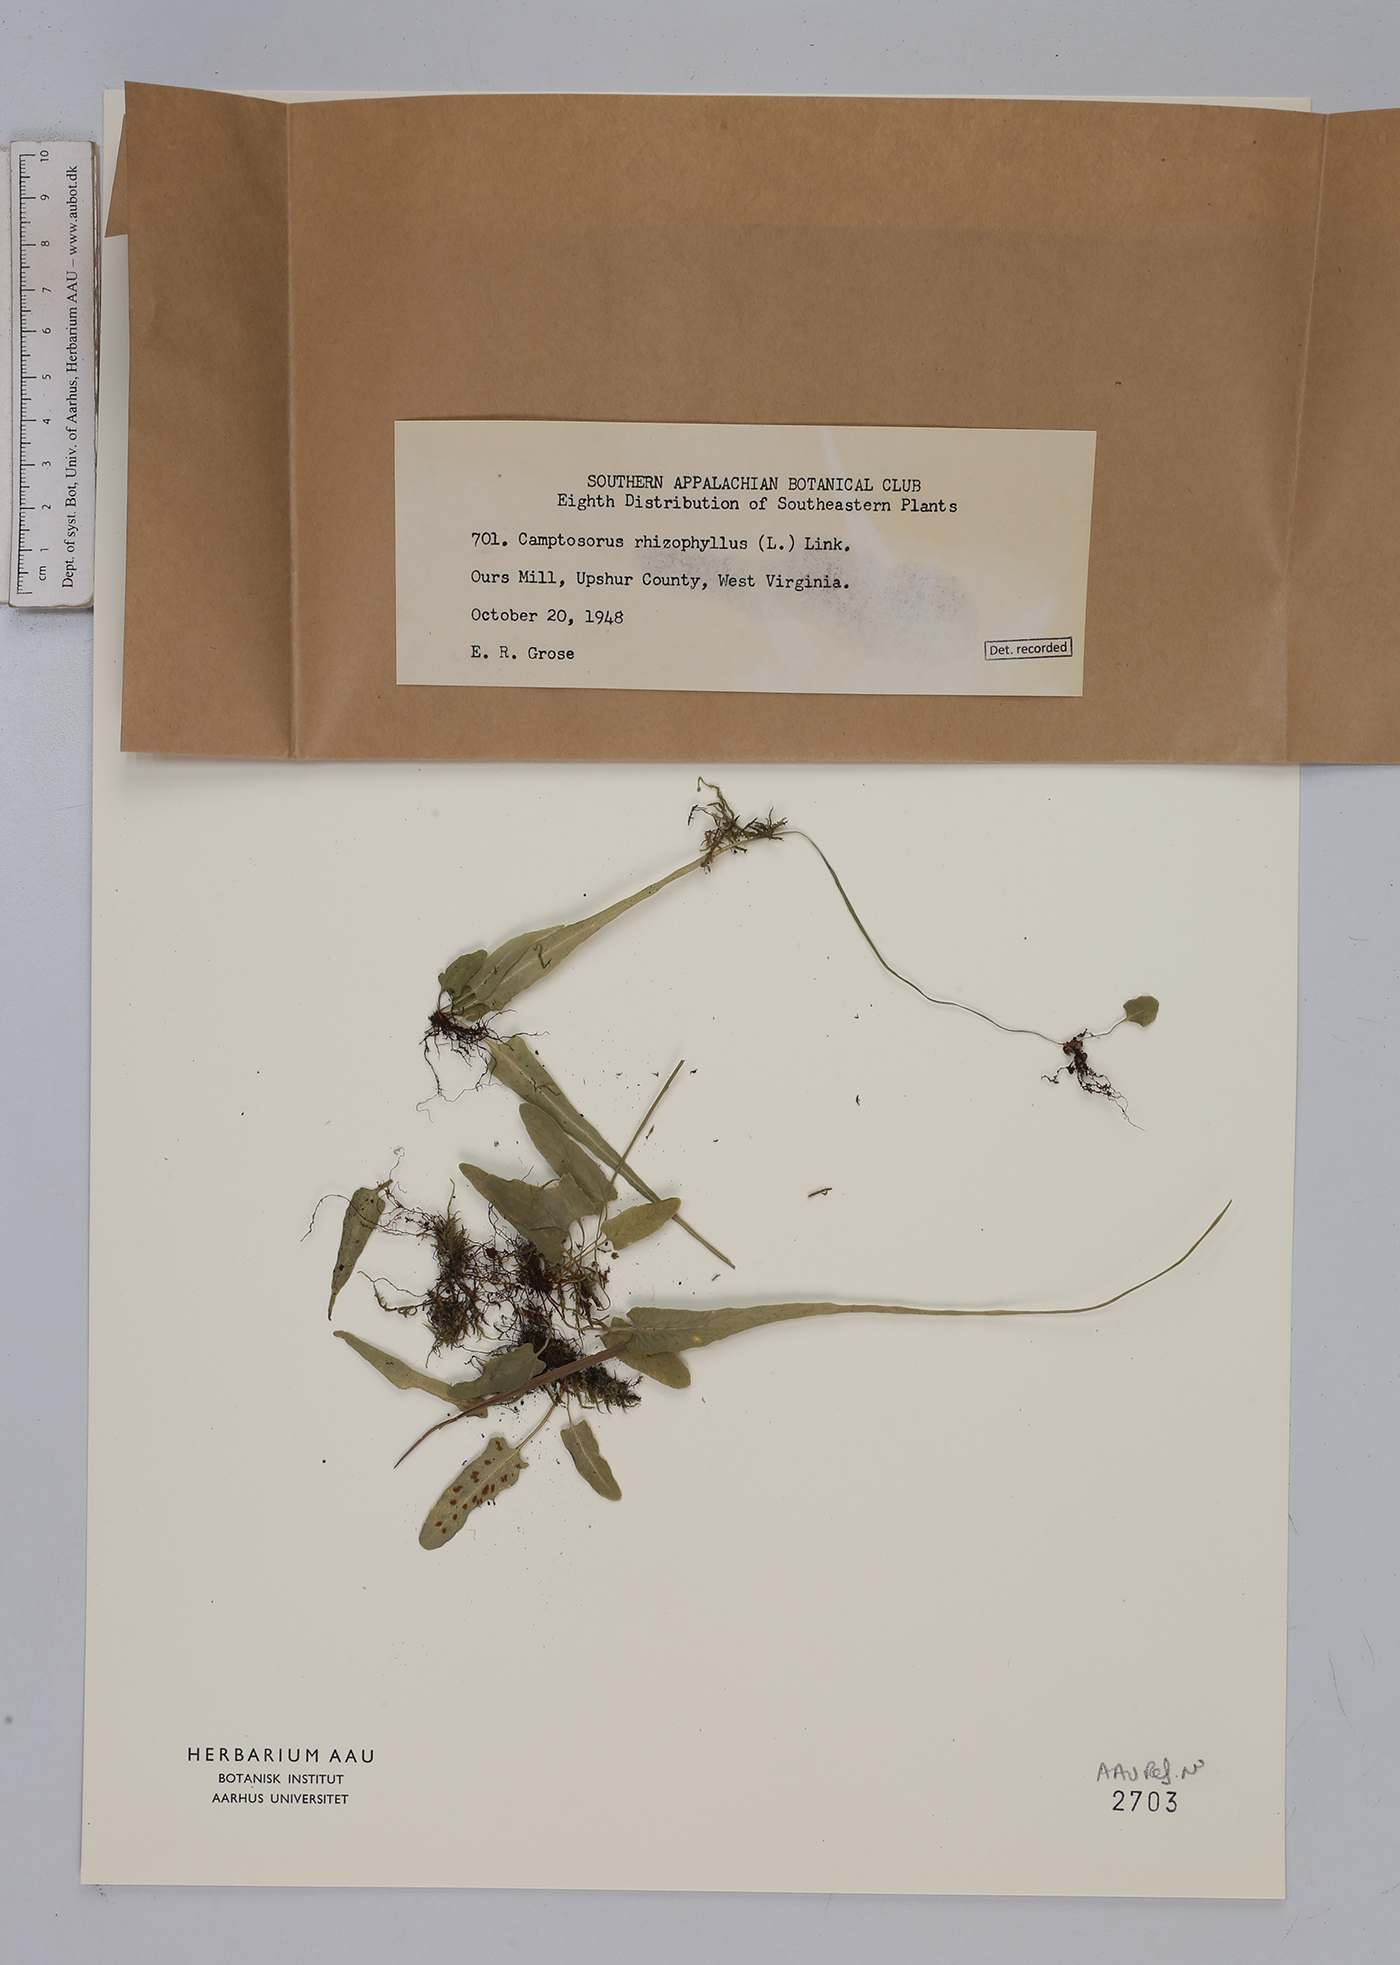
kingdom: Plantae
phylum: Tracheophyta
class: Polypodiopsida
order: Polypodiales
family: Aspleniaceae
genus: Asplenium
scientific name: Asplenium rhizophyllum
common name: Walking fern
